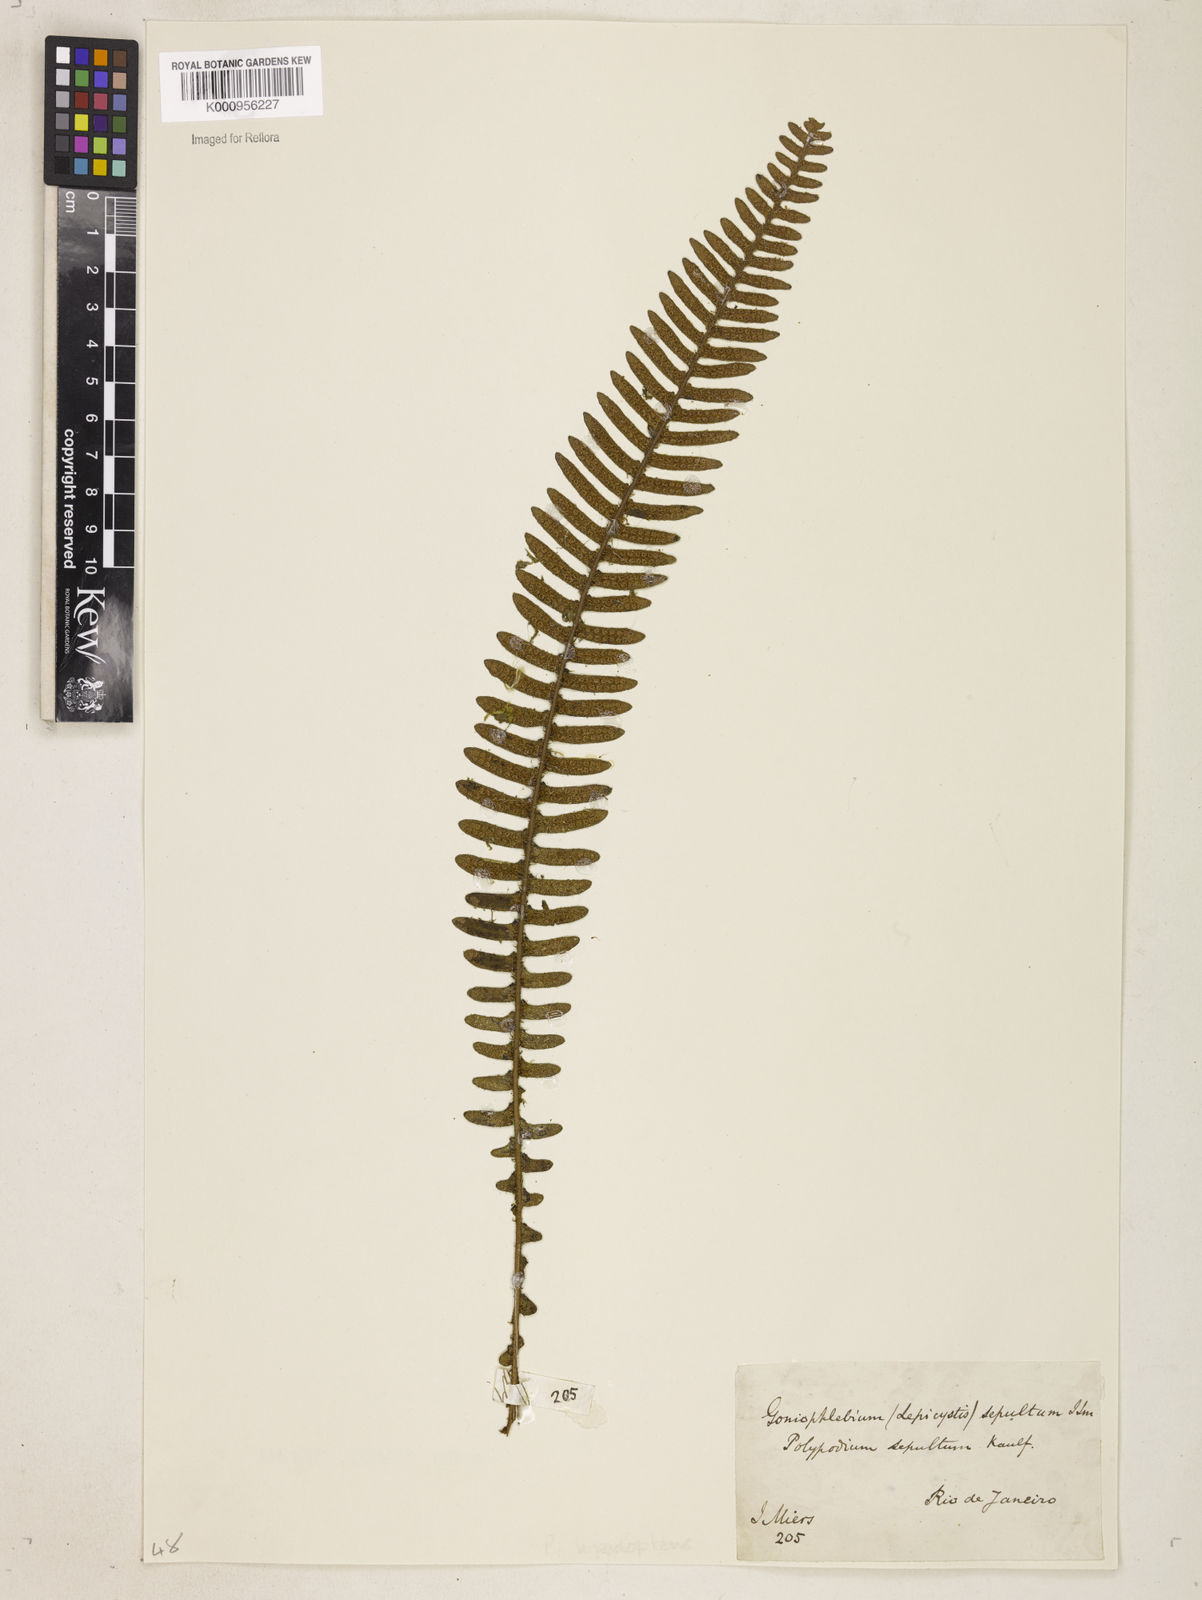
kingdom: Plantae
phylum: Tracheophyta
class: Polypodiopsida
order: Polypodiales
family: Polypodiaceae
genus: Pleopeltis
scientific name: Pleopeltis hirsutissima
